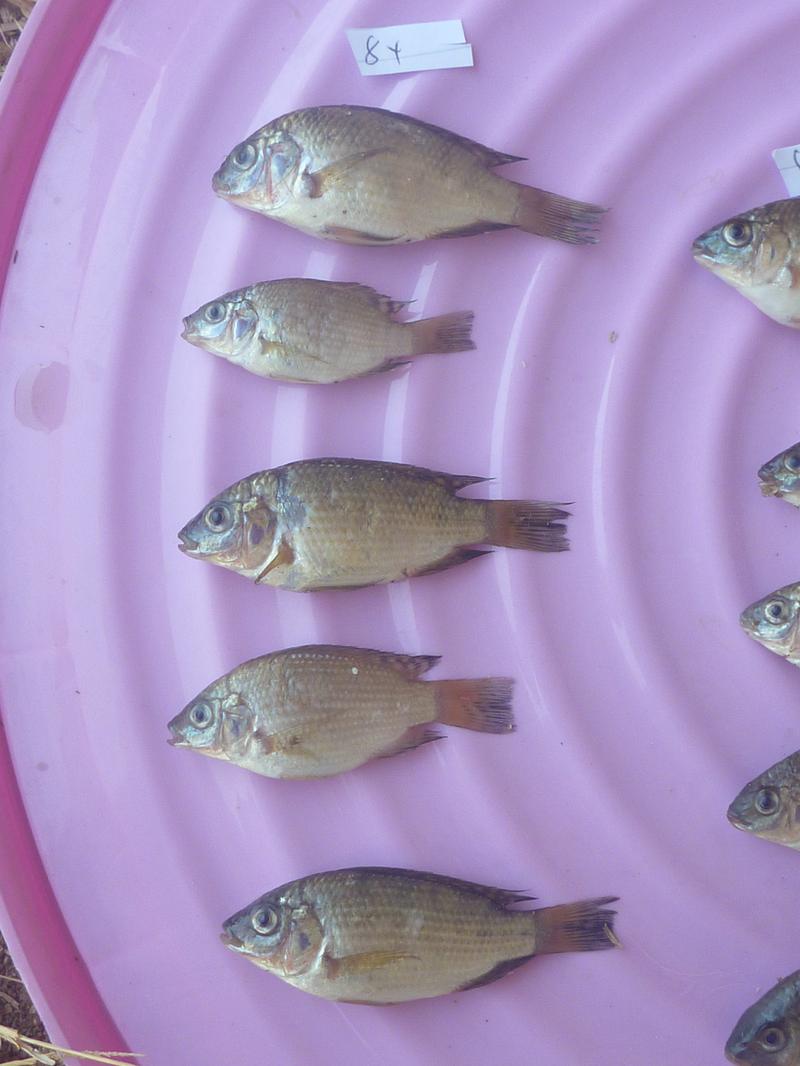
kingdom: Animalia
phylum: Chordata
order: Perciformes
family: Cichlidae
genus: Oreochromis
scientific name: Oreochromis shiranus
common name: Chilwa tilapia
